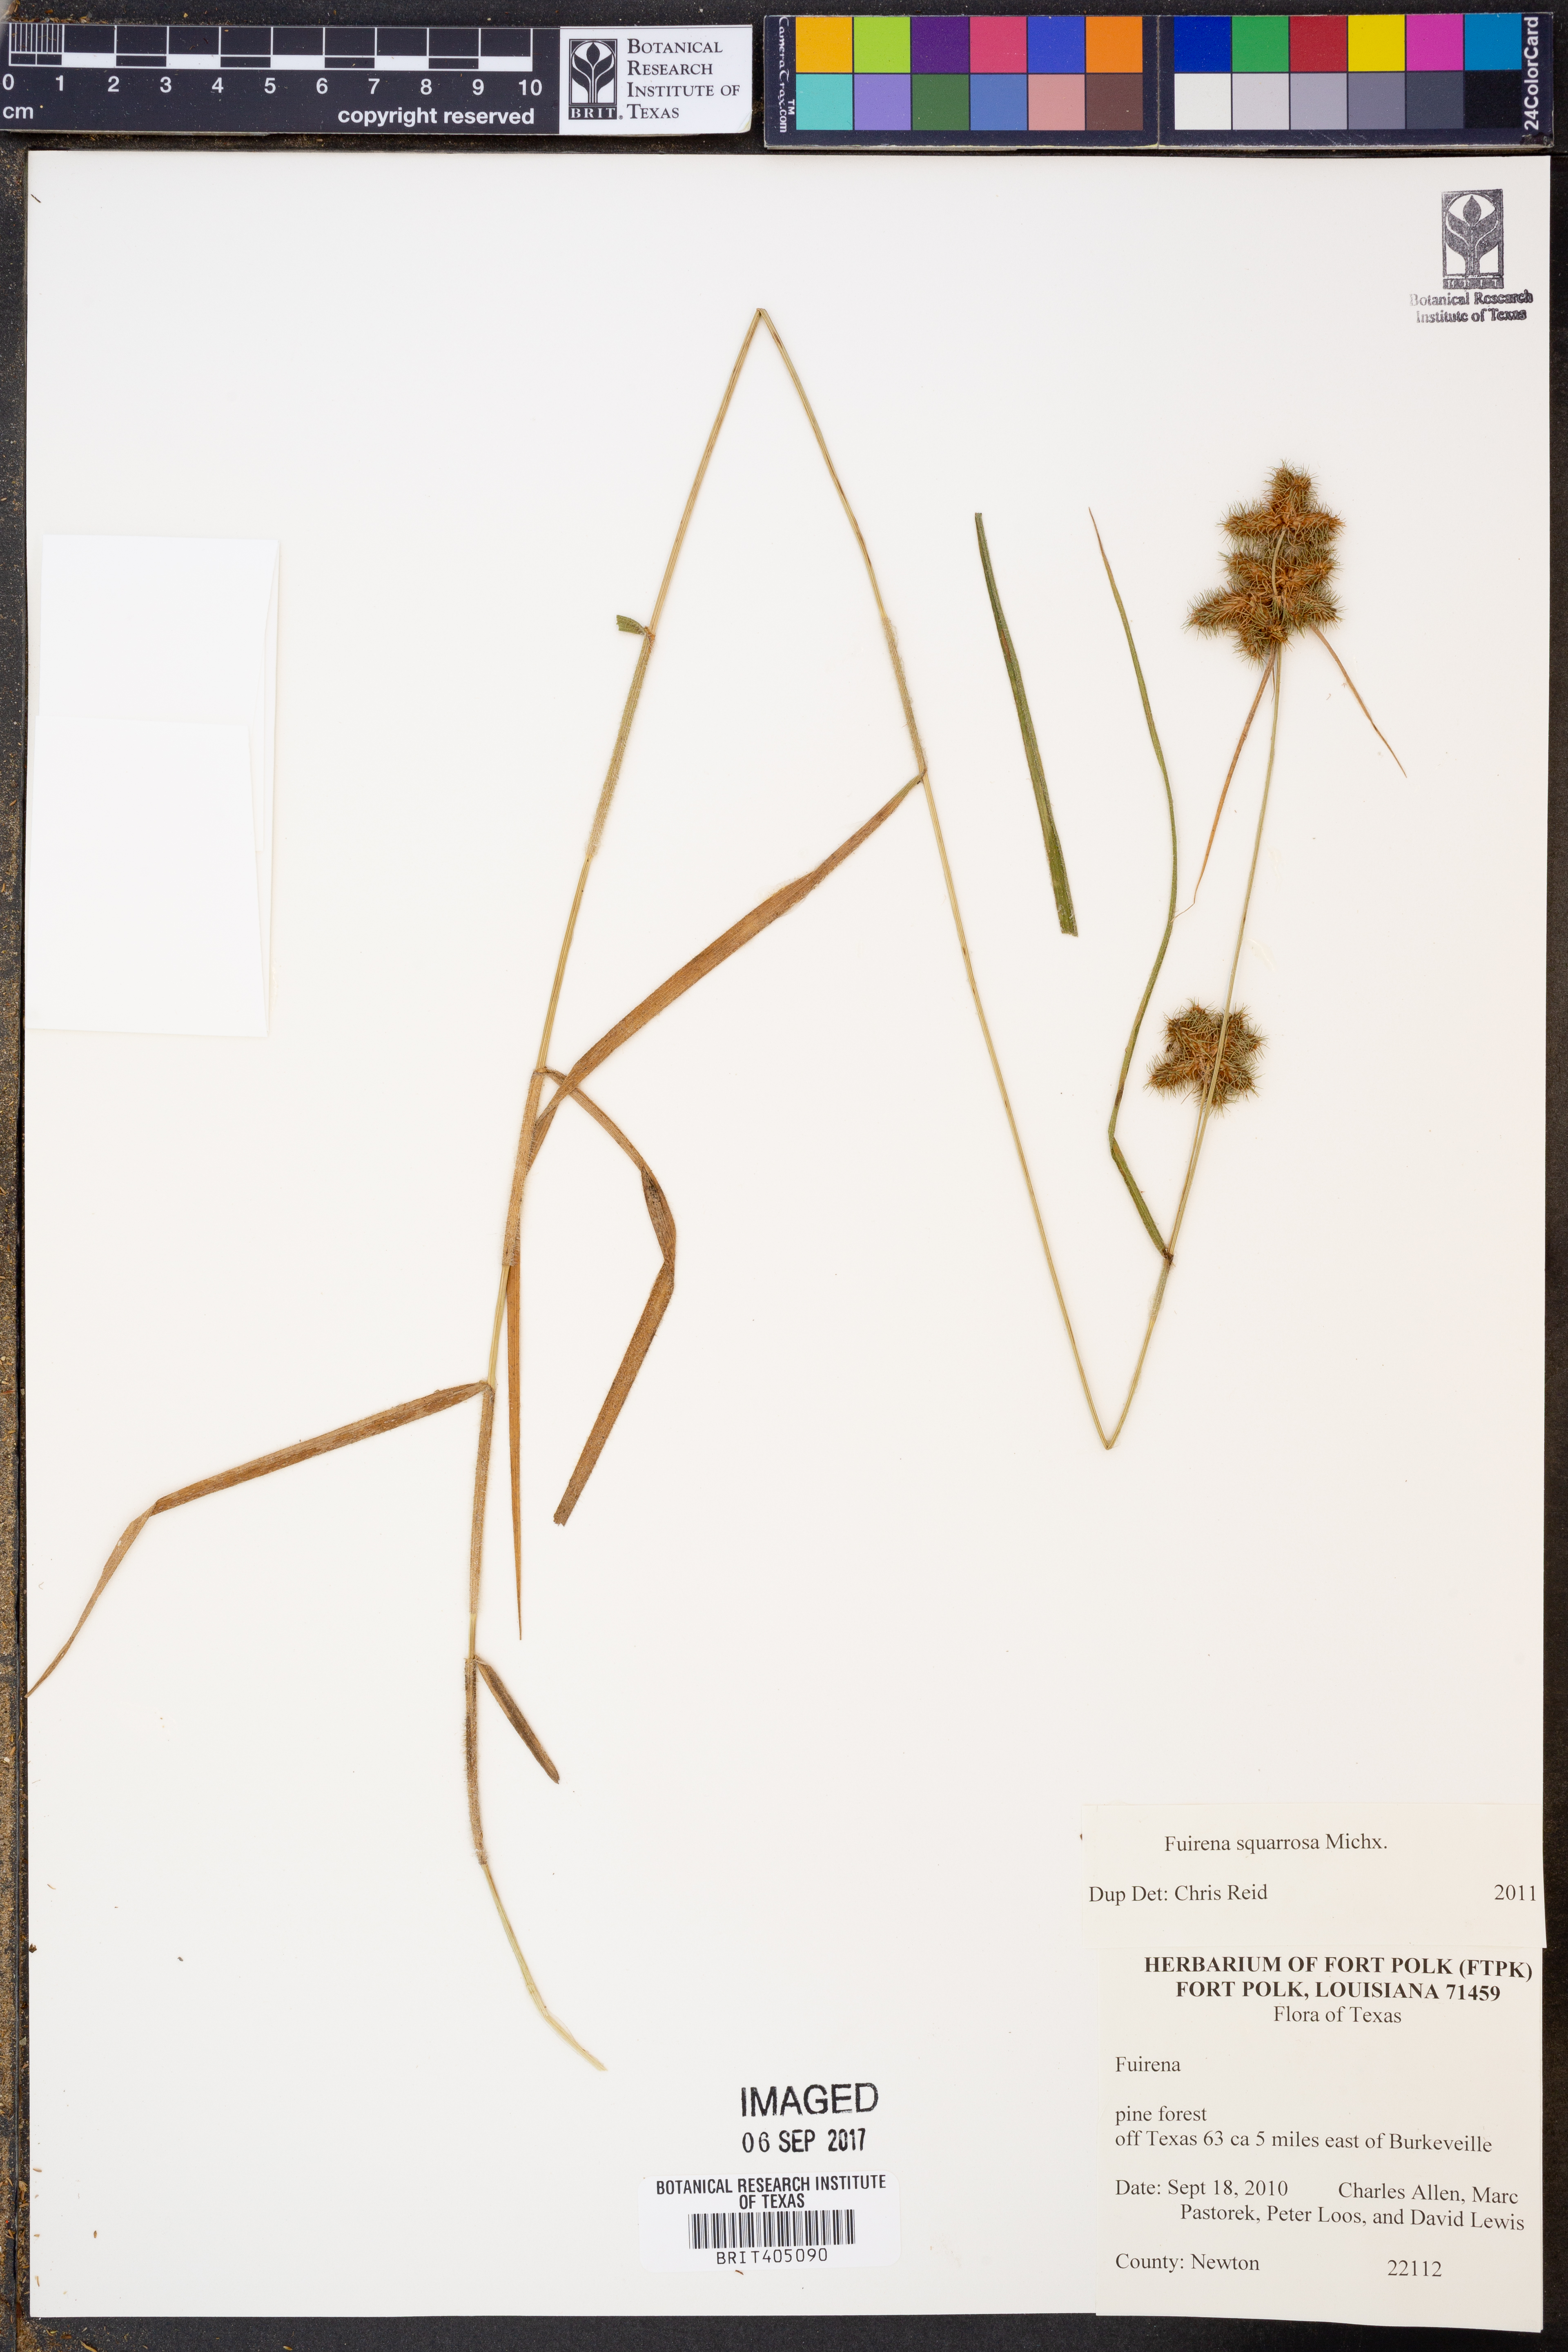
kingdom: Plantae
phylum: Tracheophyta
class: Liliopsida
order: Poales
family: Cyperaceae
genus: Fuirena
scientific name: Fuirena squarrosa
